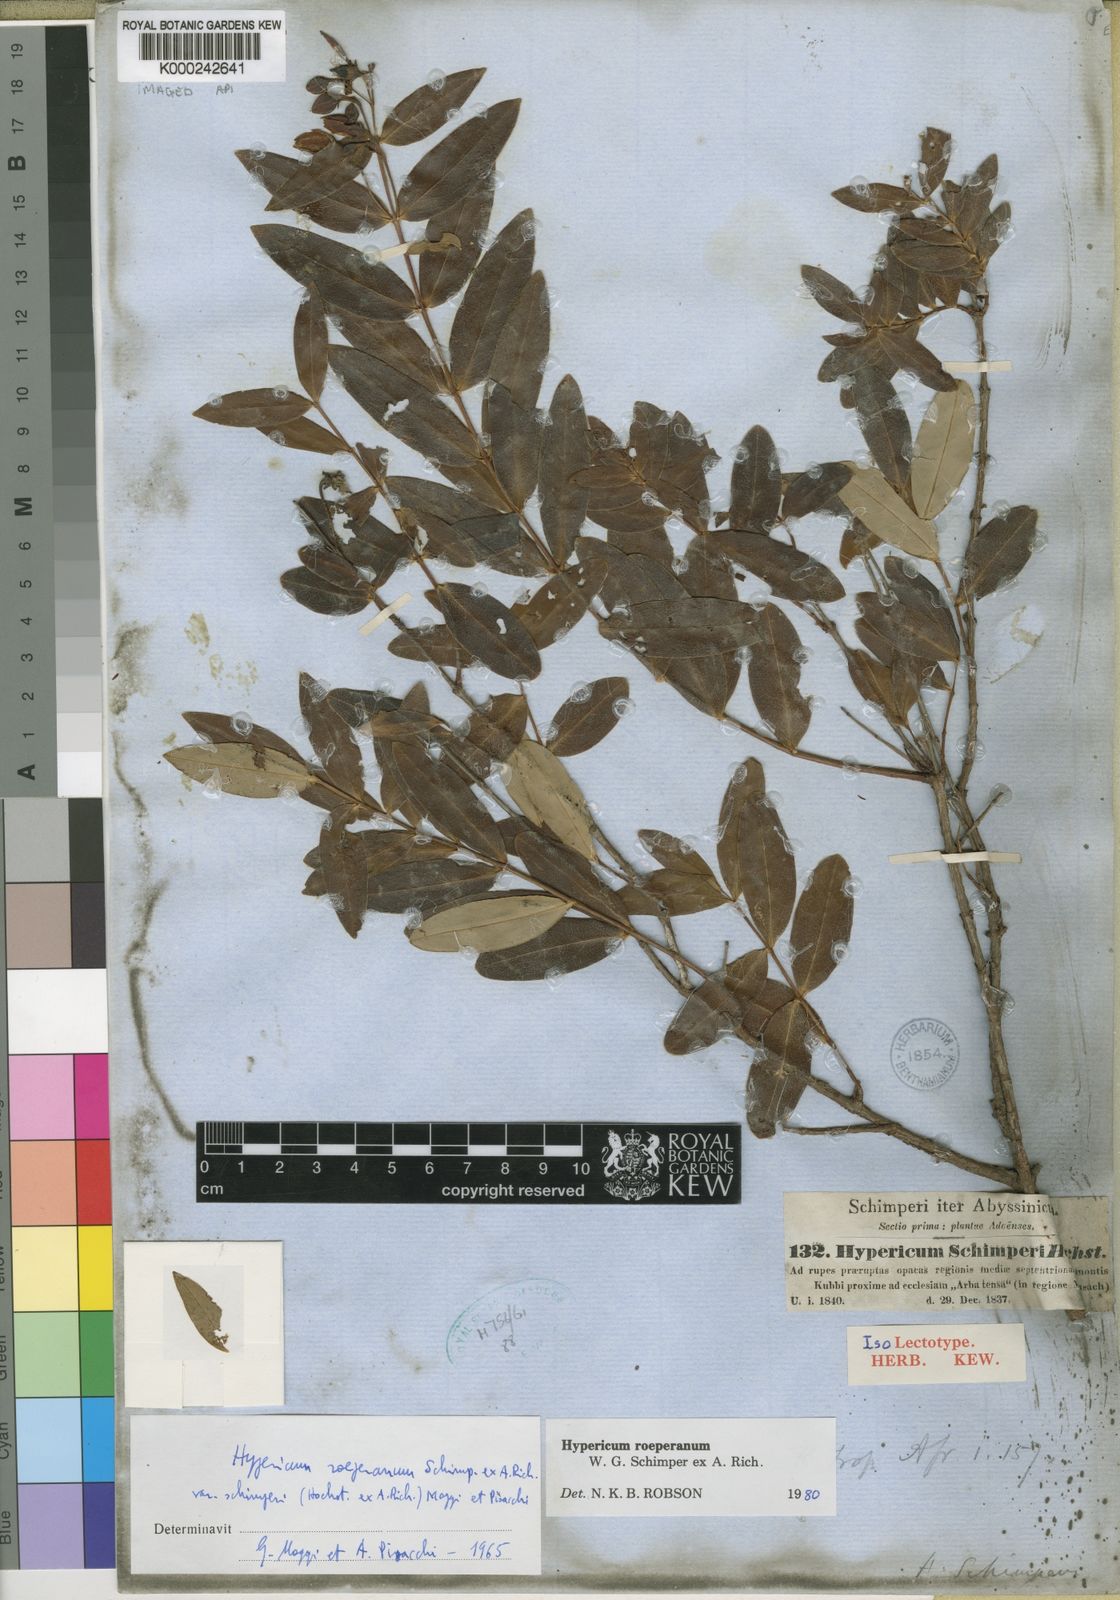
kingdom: Plantae
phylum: Tracheophyta
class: Magnoliopsida
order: Malpighiales
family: Hypericaceae
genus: Hypericum
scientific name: Hypericum roeperianum
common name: Large-leaved curry-bush
